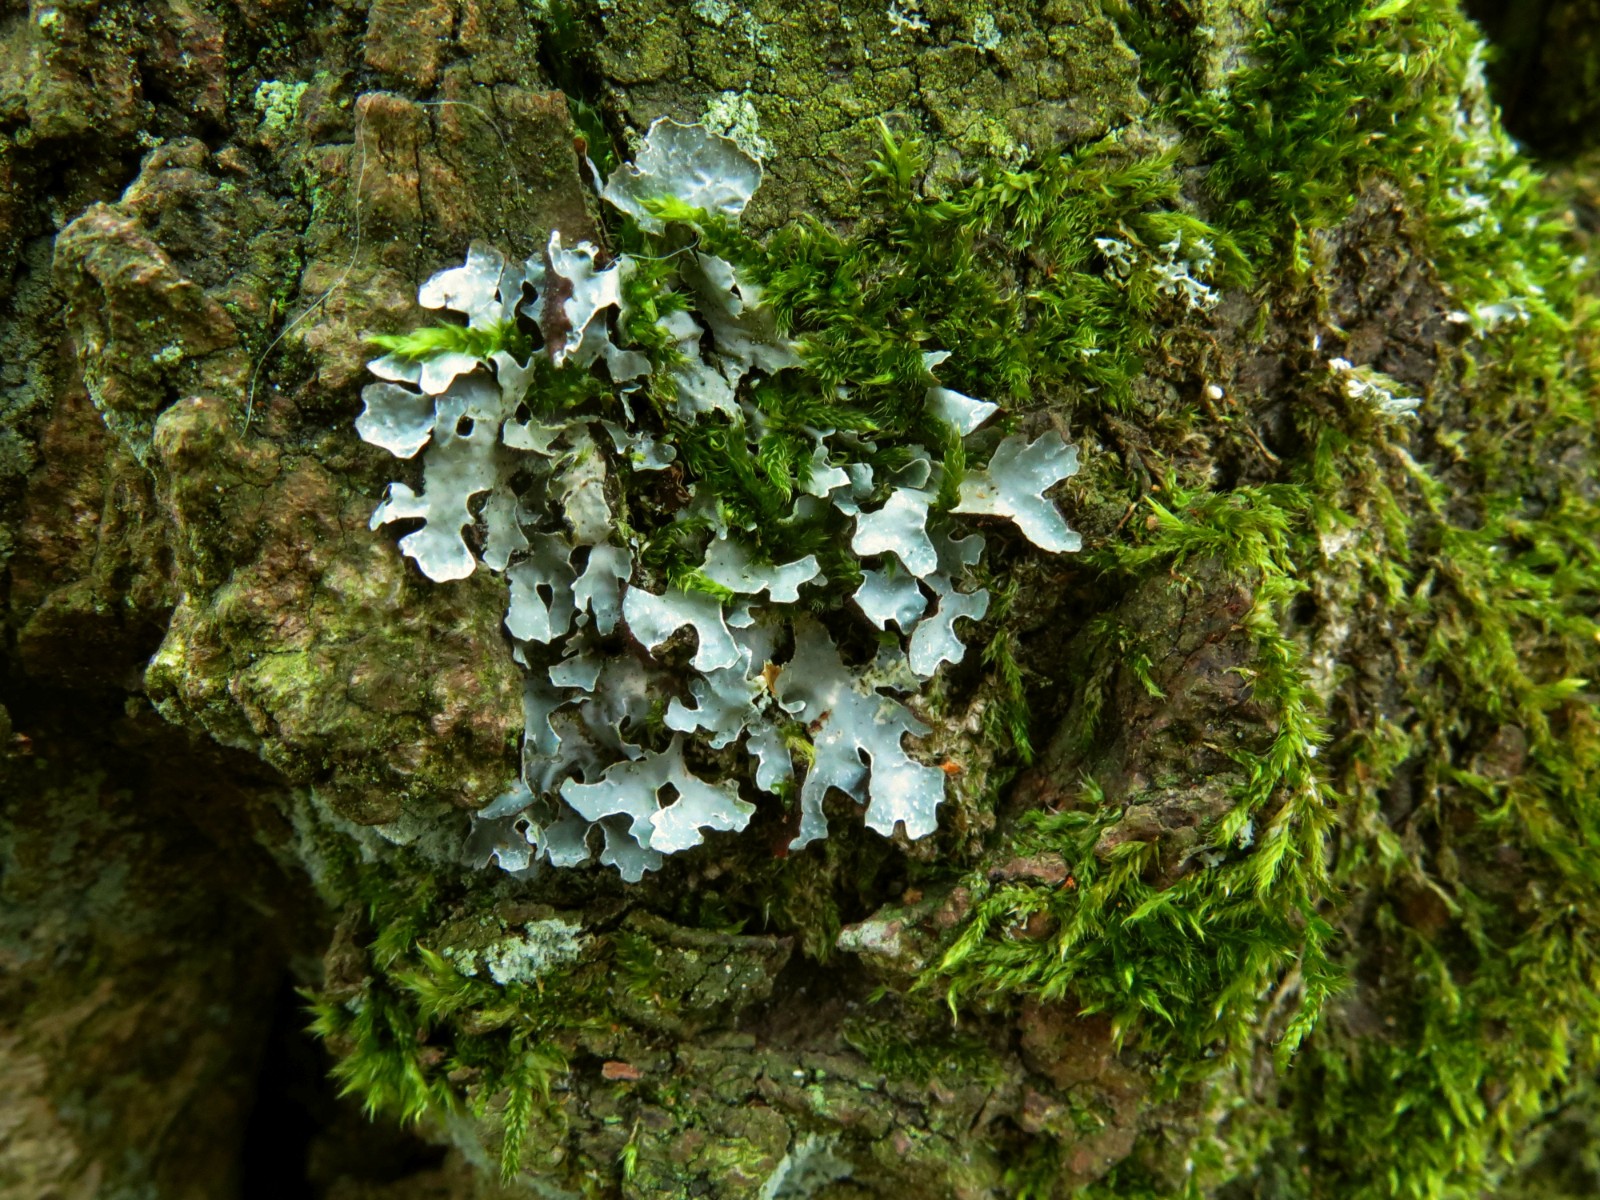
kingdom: Fungi
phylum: Ascomycota
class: Lecanoromycetes
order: Lecanorales
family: Parmeliaceae
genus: Parmelia
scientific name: Parmelia sulcata
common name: rynket skållav
